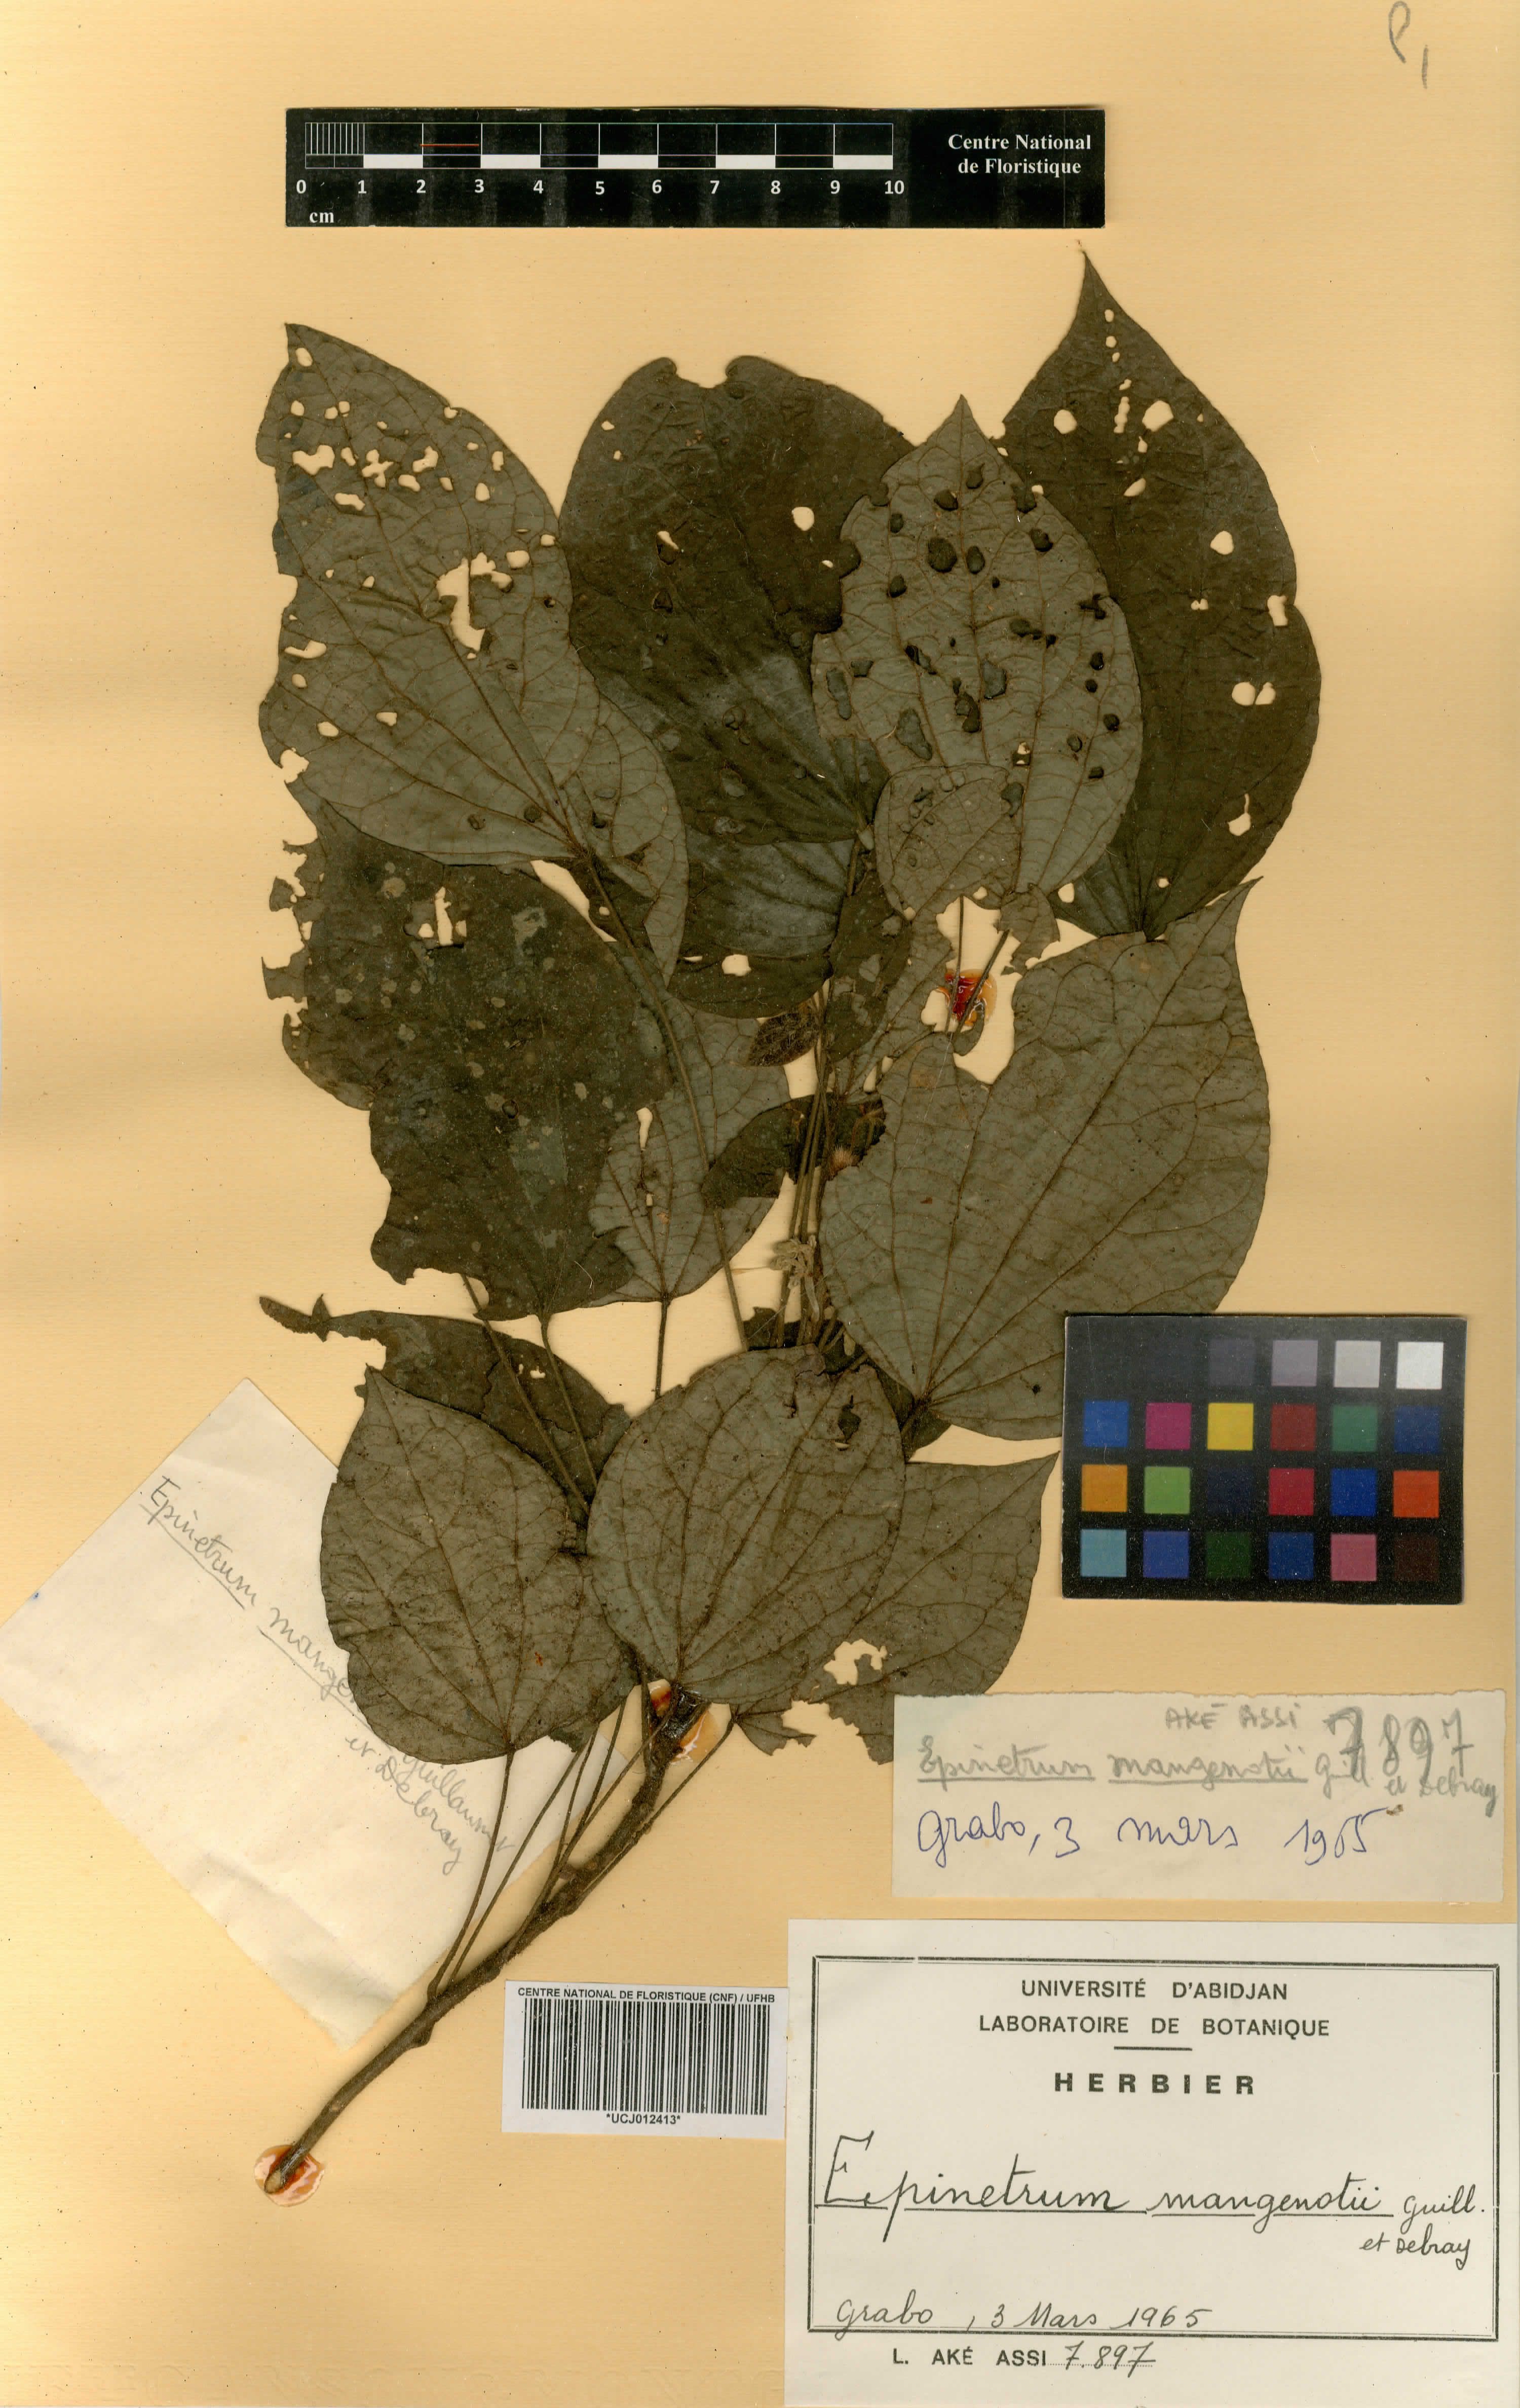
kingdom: Plantae
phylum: Tracheophyta
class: Magnoliopsida
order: Ranunculales
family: Menispermaceae
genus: Albertisia
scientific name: Albertisia mangenotii
